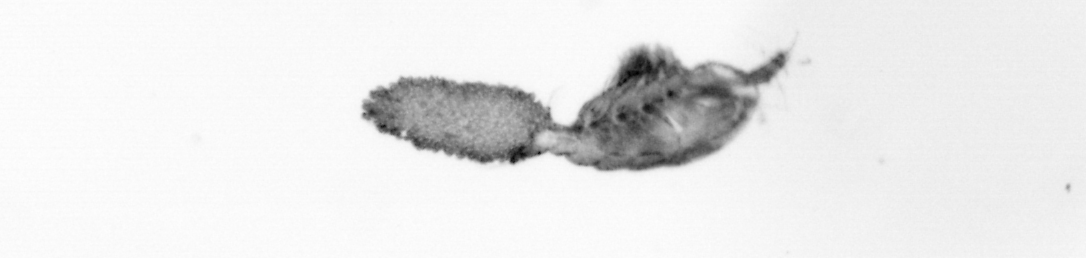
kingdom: Animalia
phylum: Arthropoda
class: Copepoda
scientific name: Copepoda
